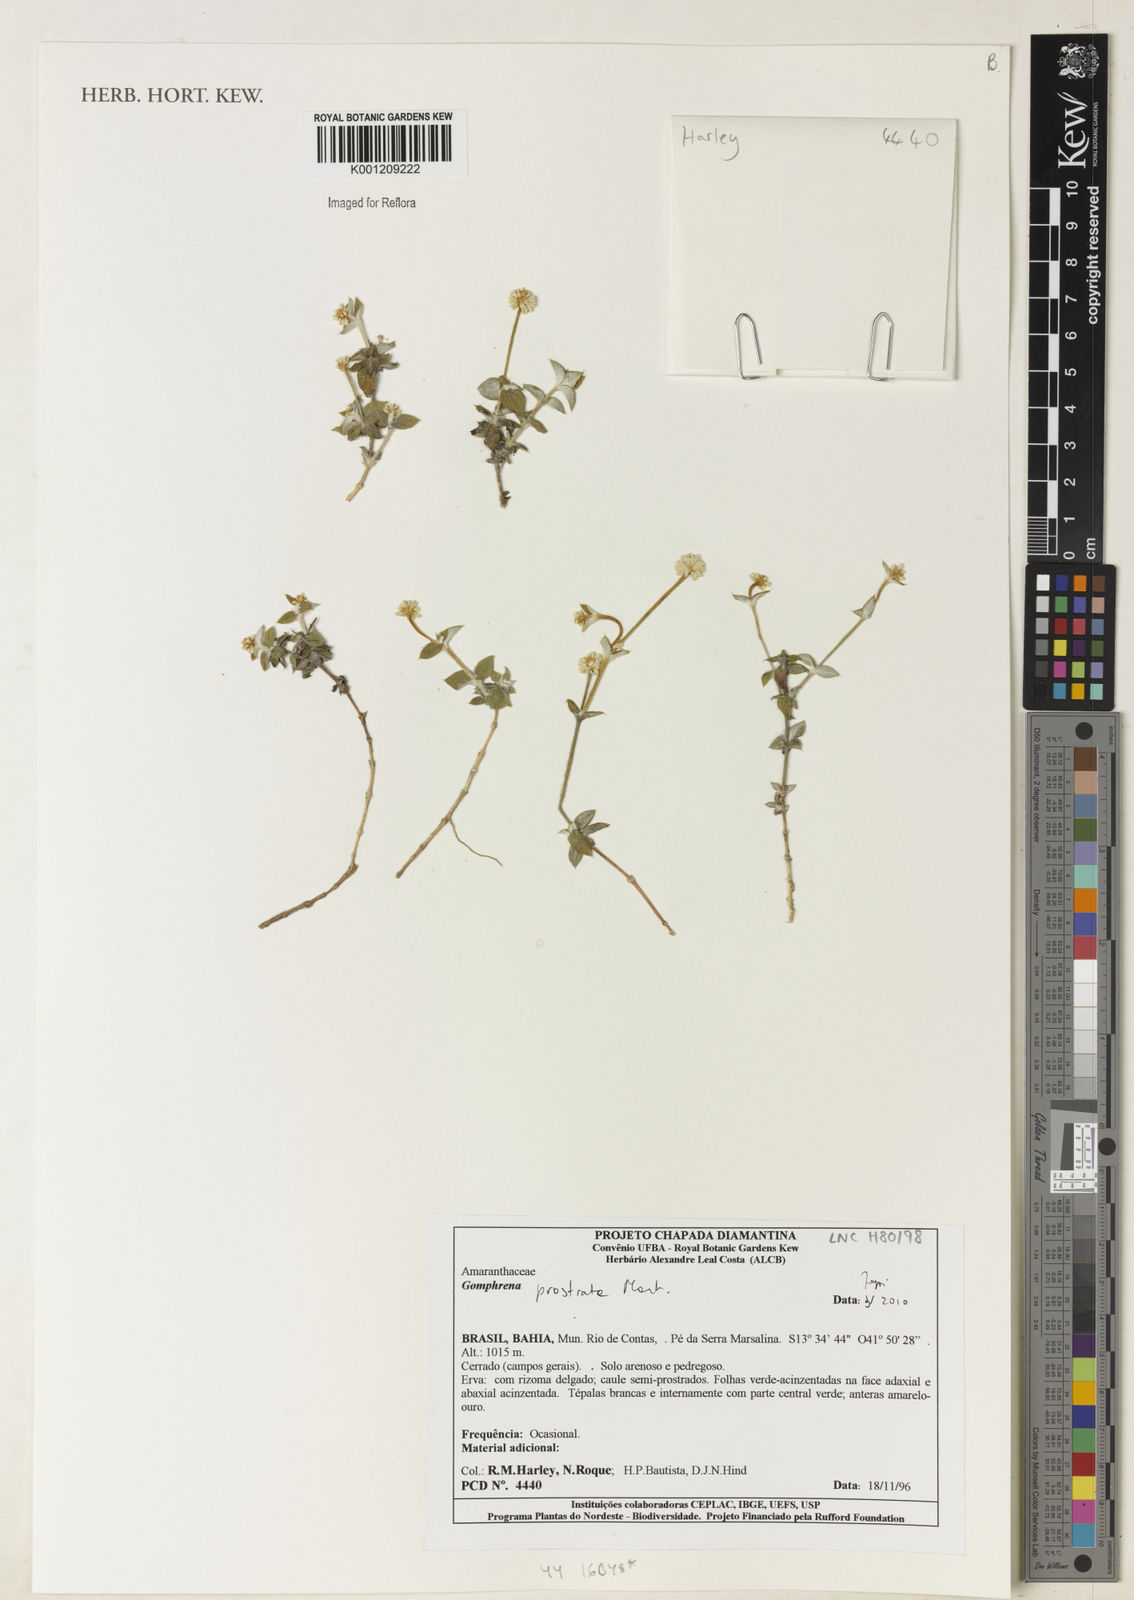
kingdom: Plantae
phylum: Tracheophyta
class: Magnoliopsida
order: Caryophyllales
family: Amaranthaceae
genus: Gomphrena
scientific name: Gomphrena prostrata
